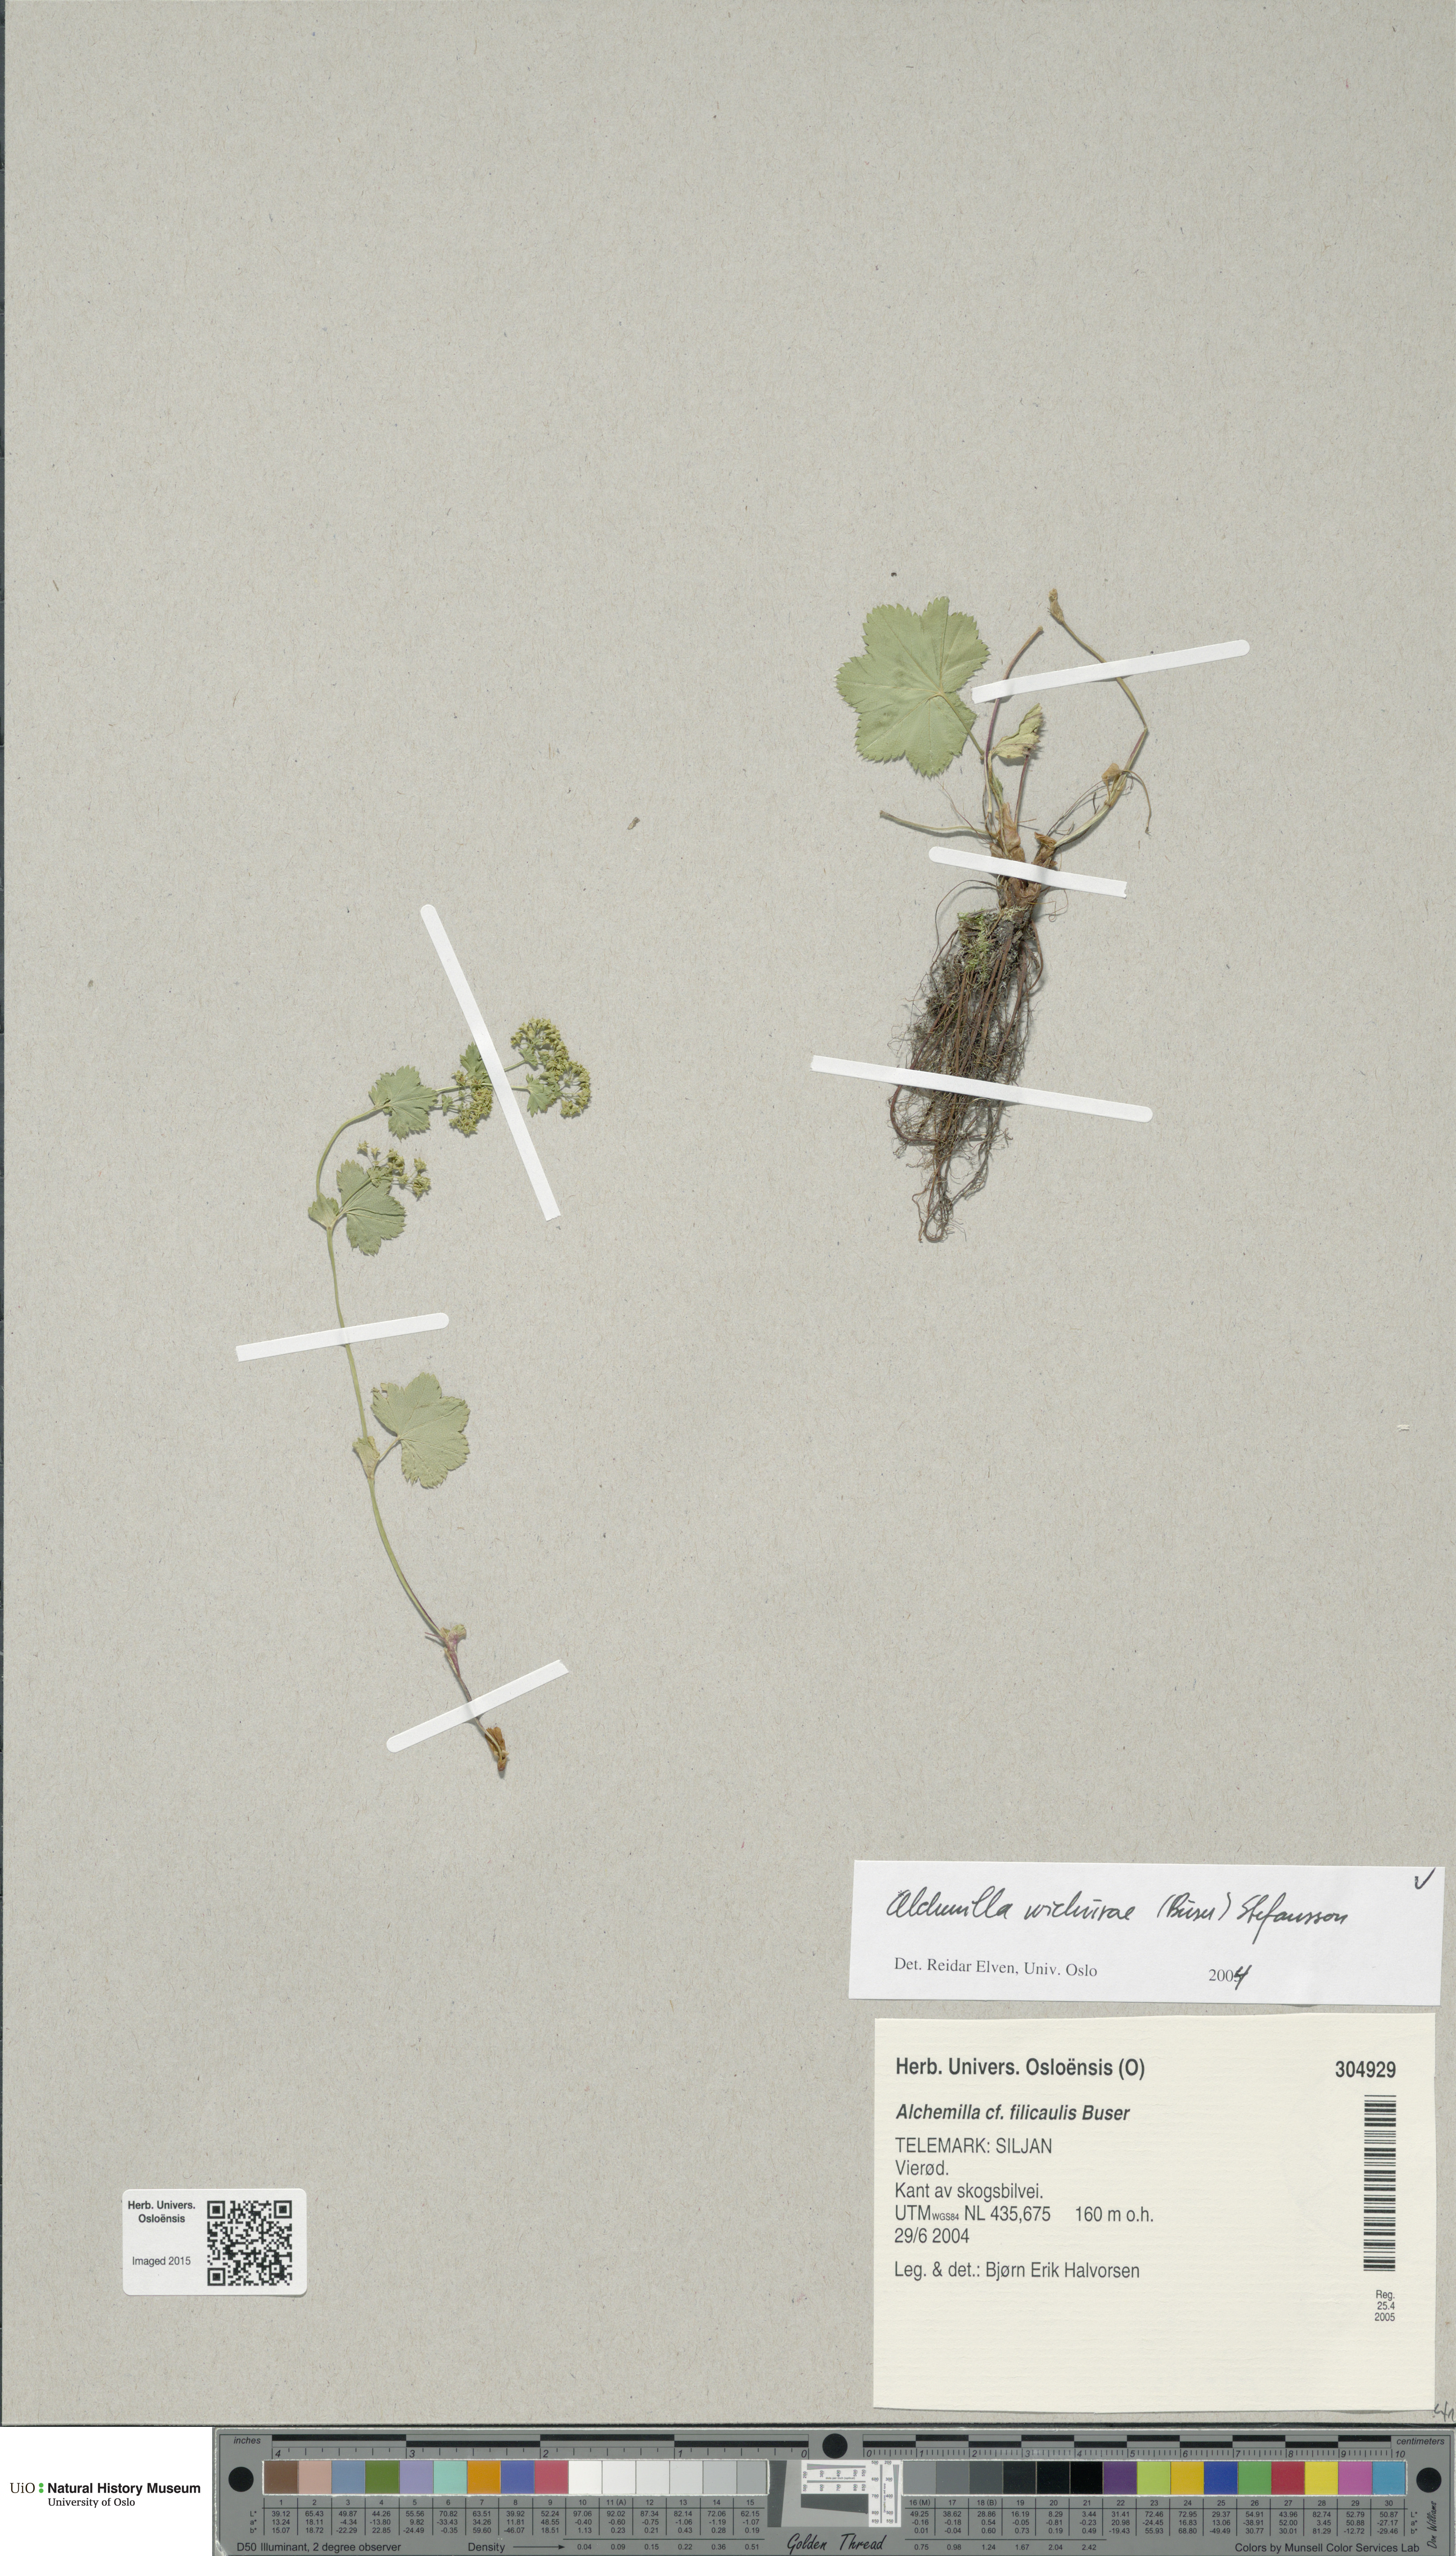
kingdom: Plantae
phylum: Tracheophyta
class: Magnoliopsida
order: Rosales
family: Rosaceae
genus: Alchemilla
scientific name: Alchemilla wichurae
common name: Rock lady's mantle
